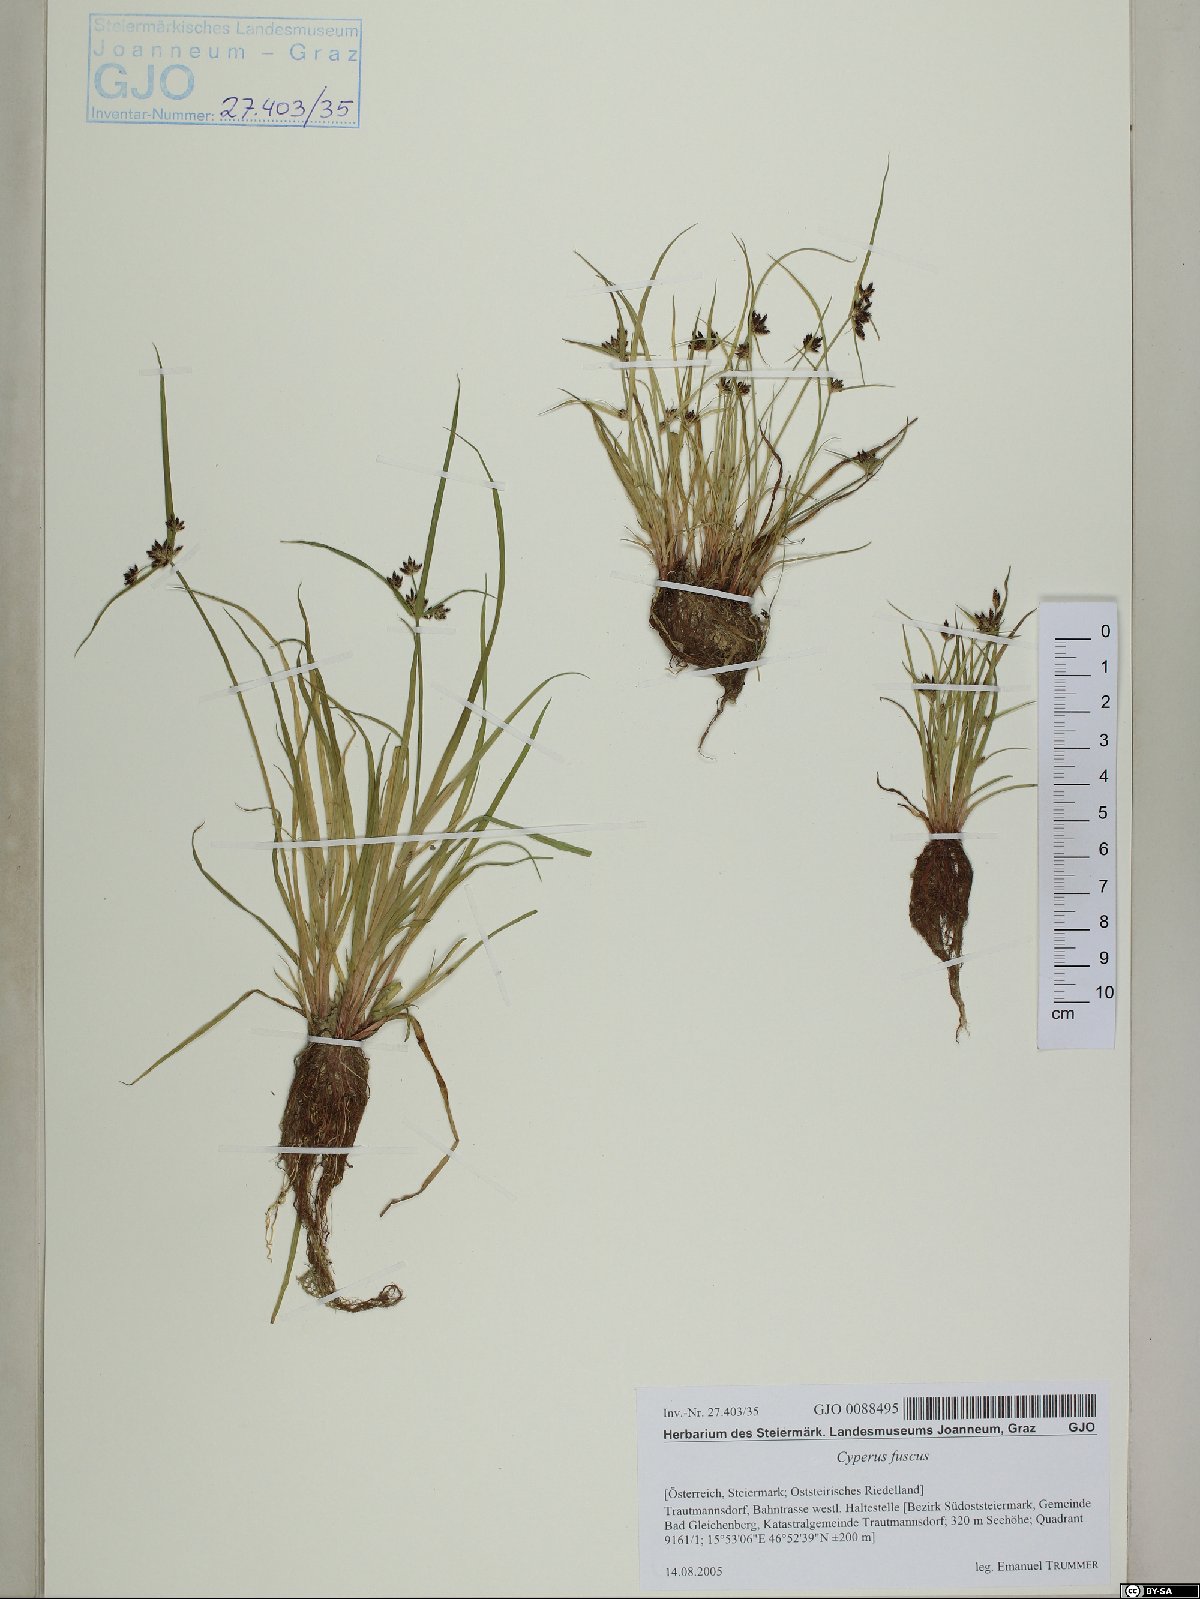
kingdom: Plantae
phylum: Tracheophyta
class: Liliopsida
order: Poales
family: Cyperaceae
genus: Cyperus
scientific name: Cyperus fuscus
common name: Brown galingale
